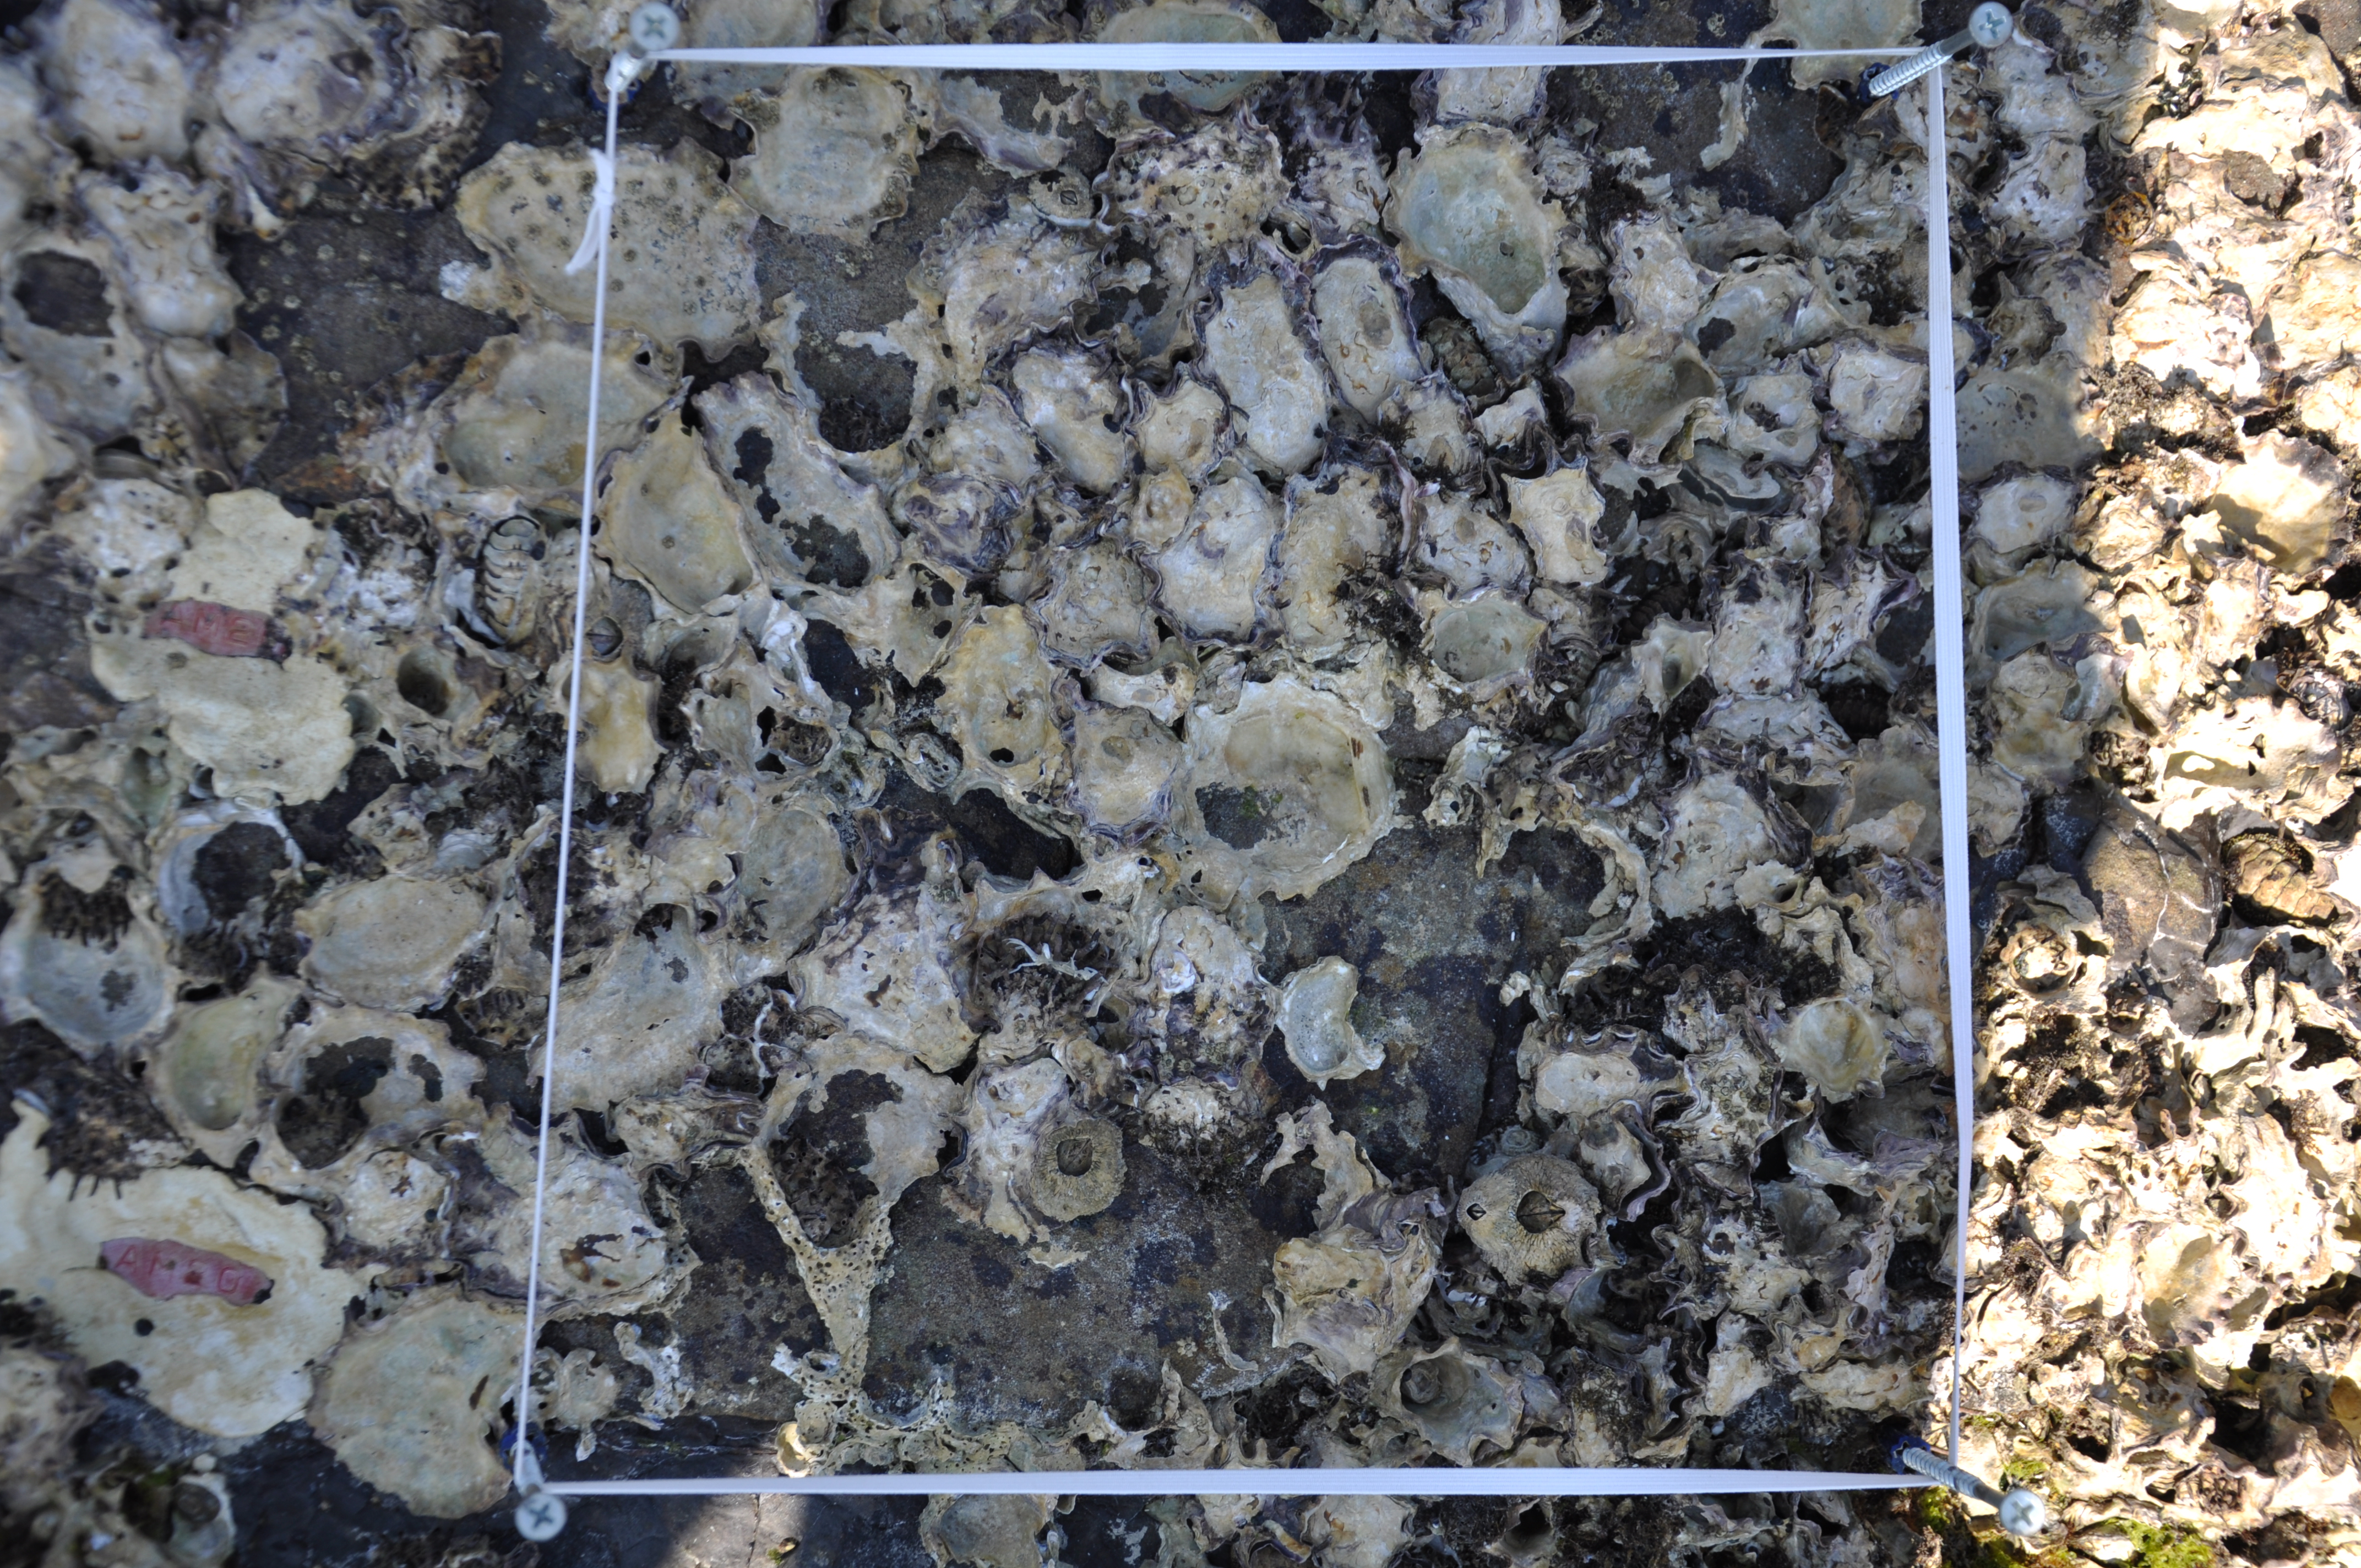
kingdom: Animalia
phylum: Arthropoda
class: Maxillopoda
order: Sessilia
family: Chthamalidae
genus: Chthamalus
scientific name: Chthamalus challengeri
